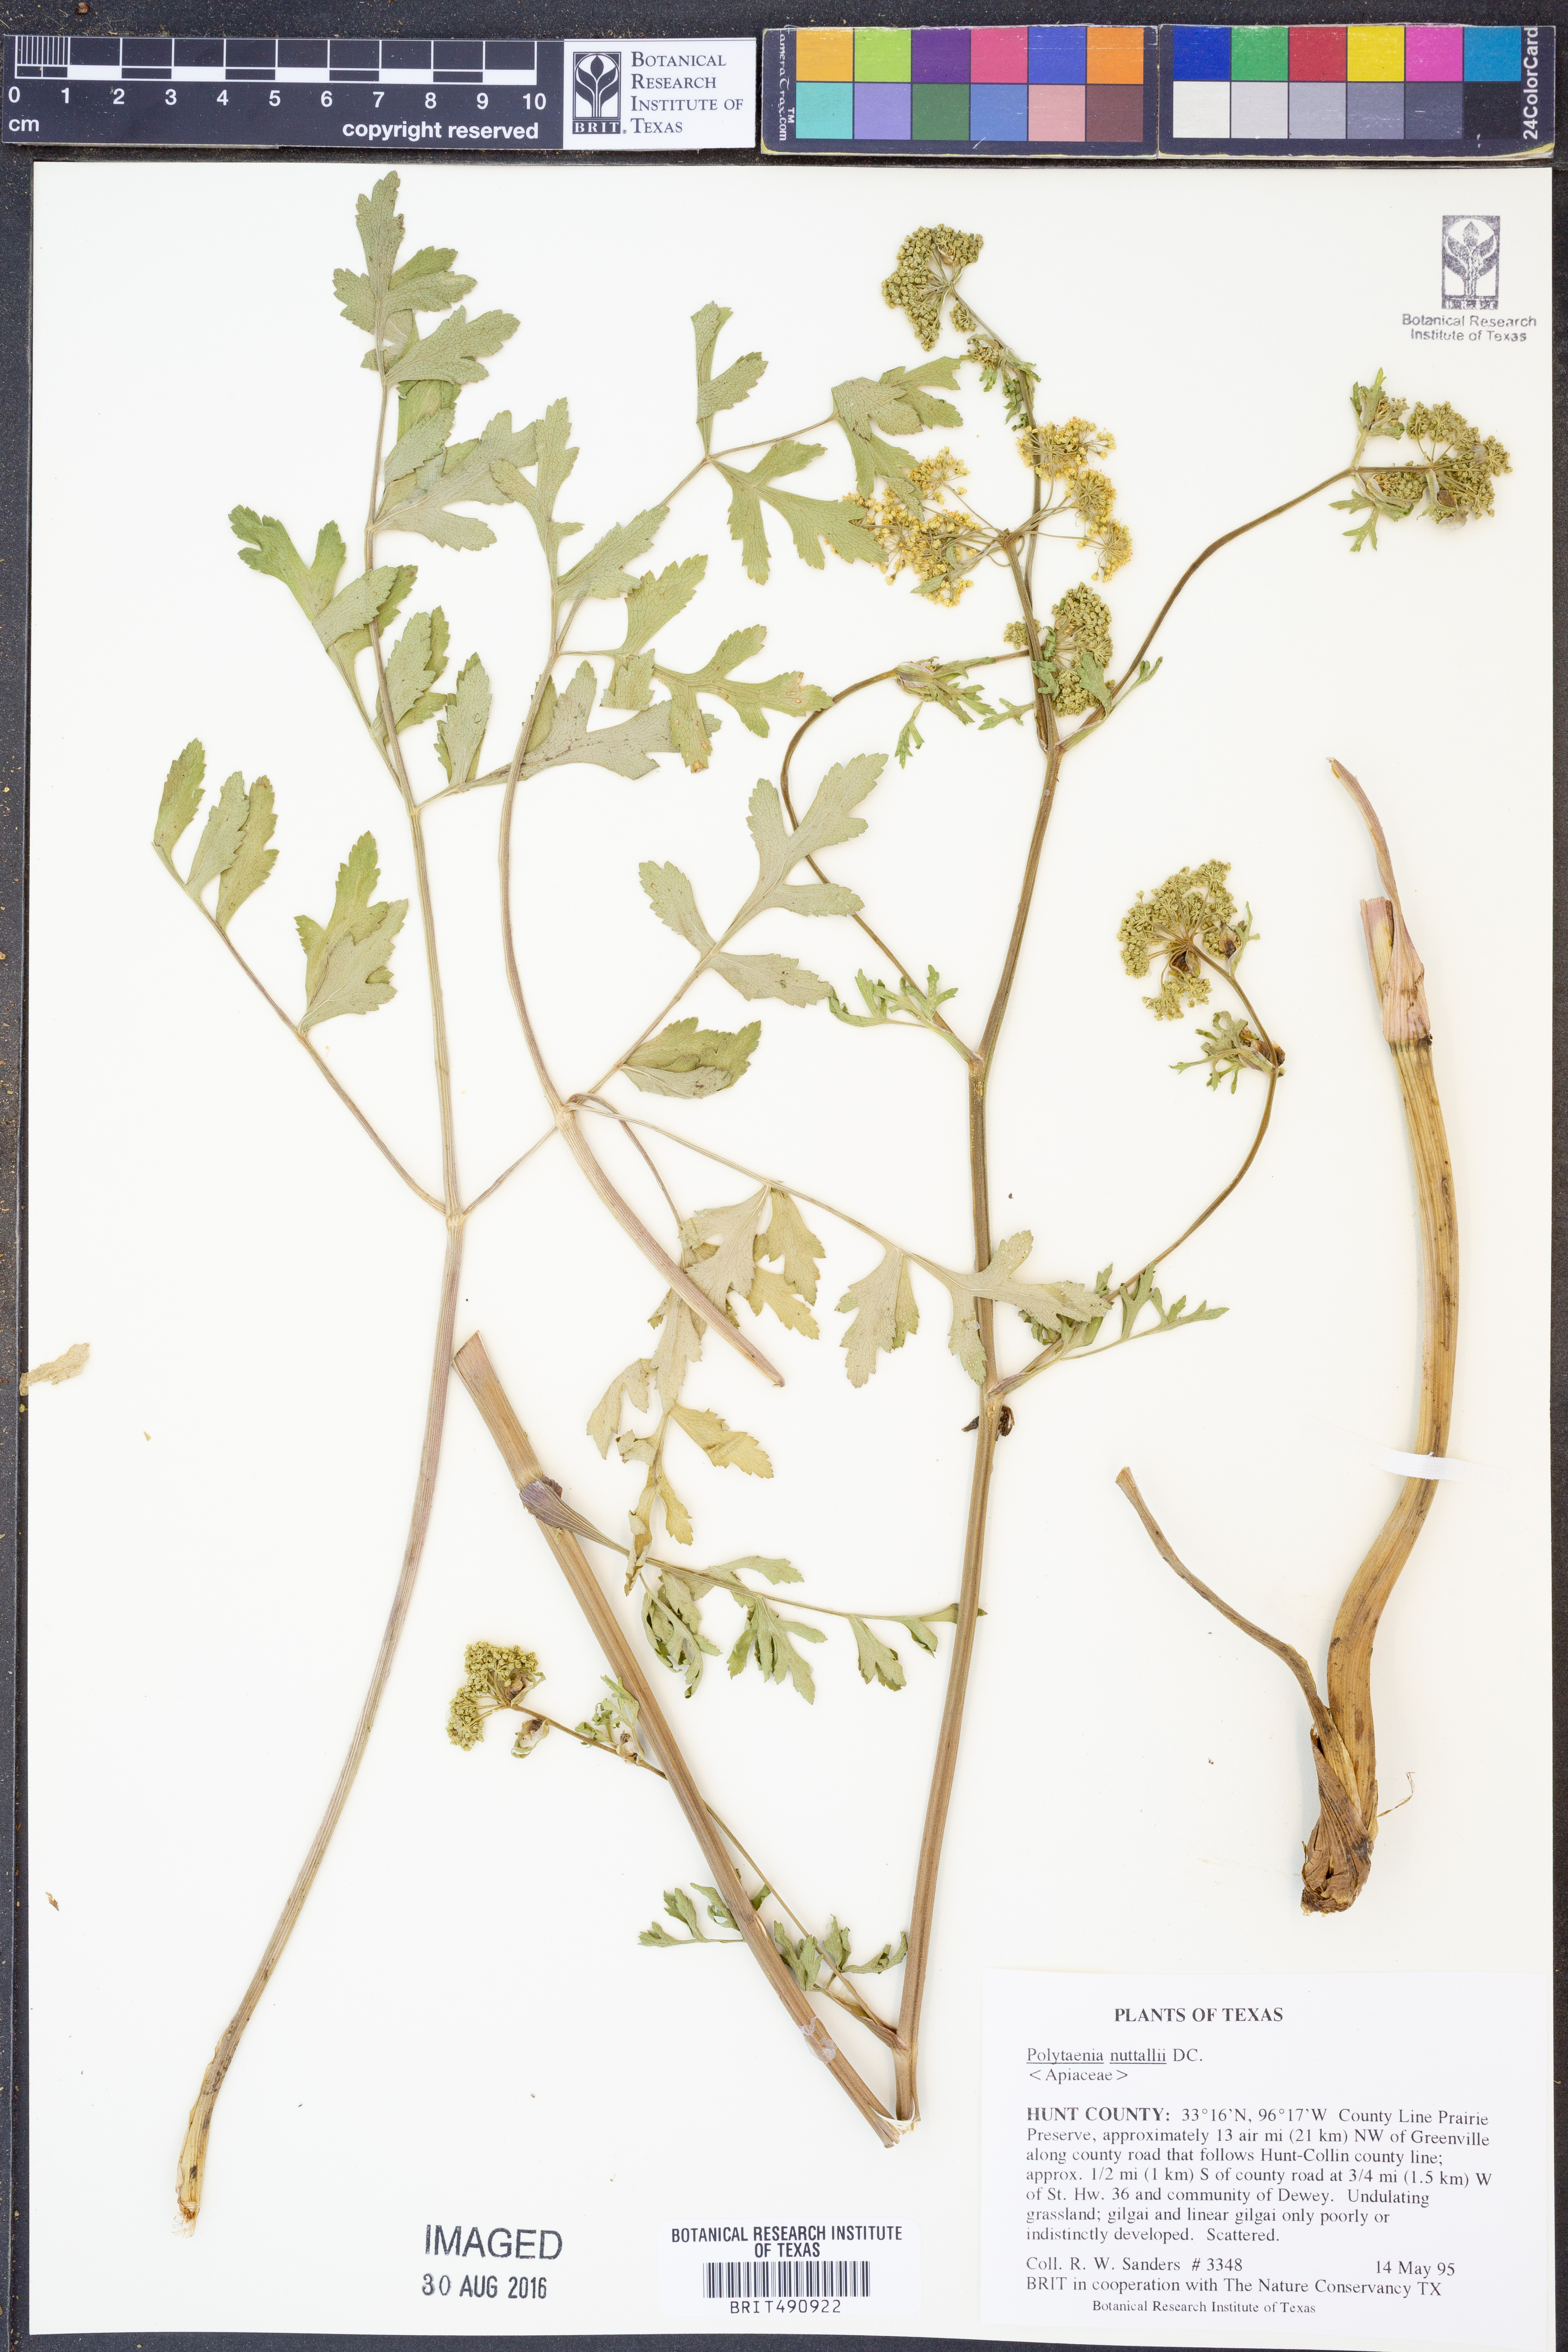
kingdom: Plantae
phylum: Tracheophyta
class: Magnoliopsida
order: Apiales
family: Apiaceae
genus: Polytaenia
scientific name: Polytaenia nuttallii
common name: Prairie-parsley
